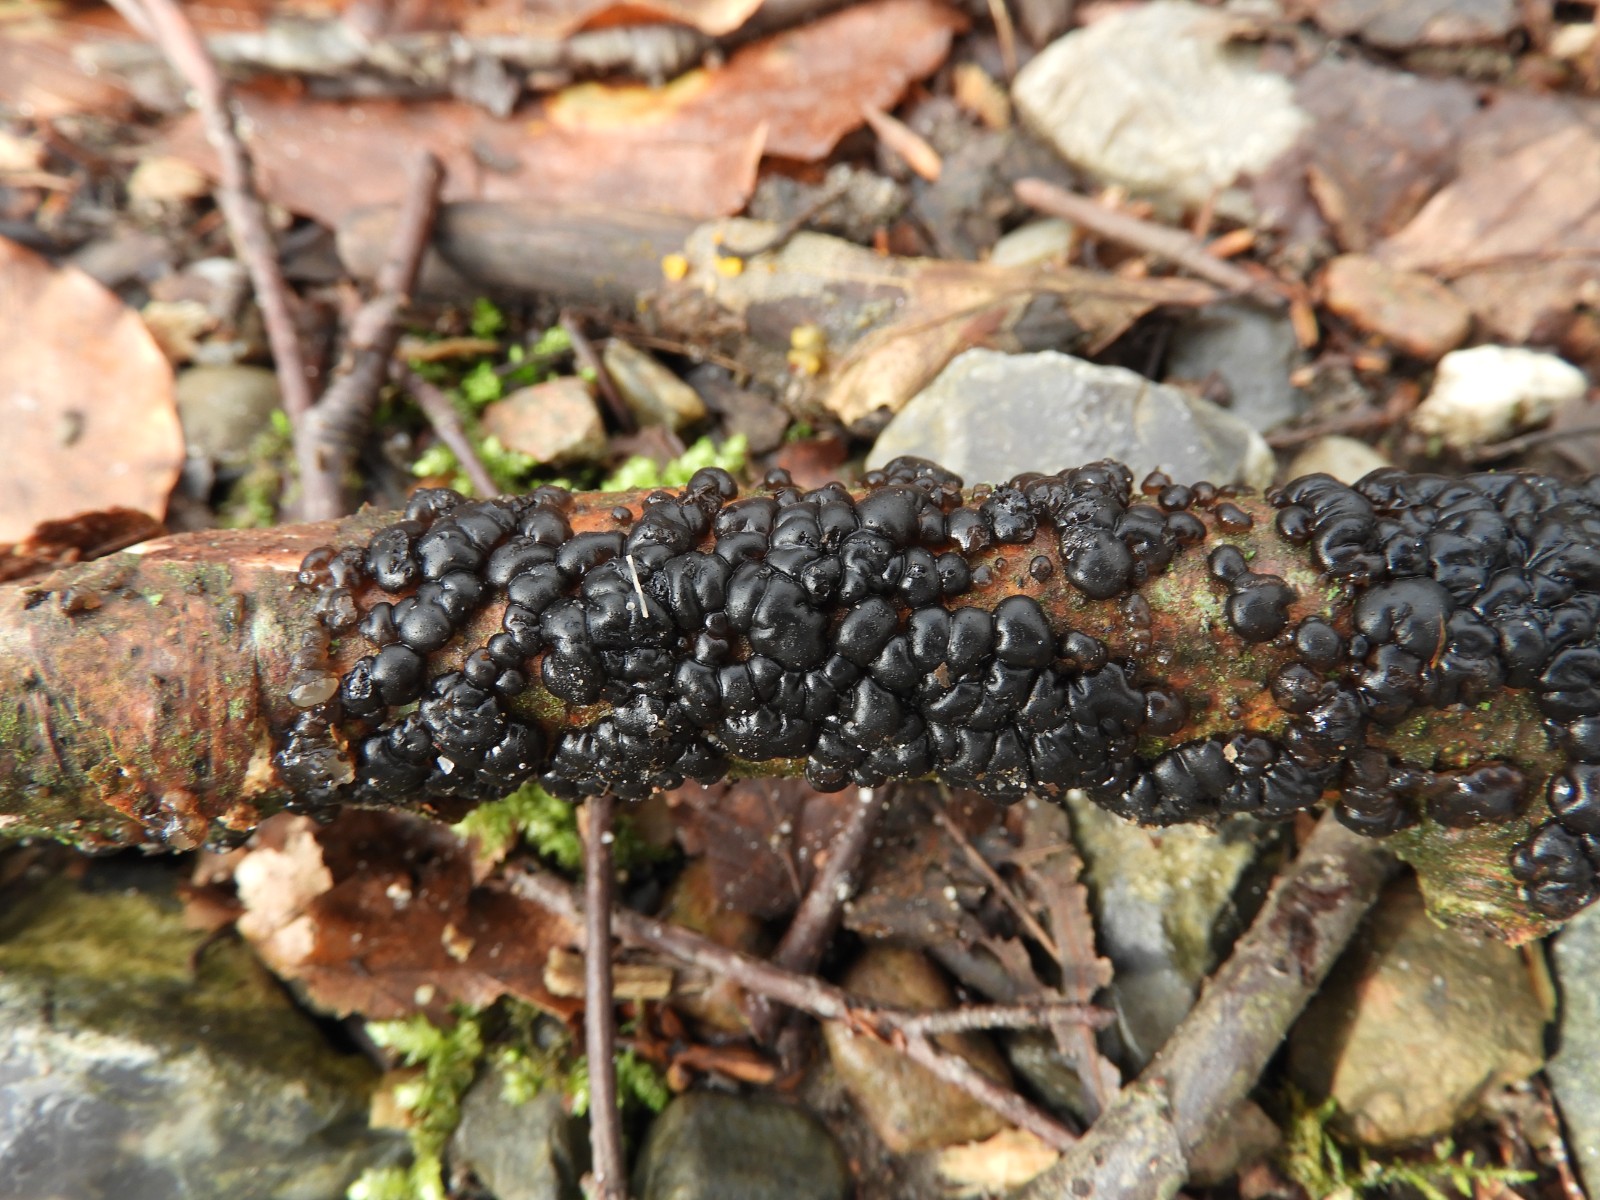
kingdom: Fungi
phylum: Basidiomycota
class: Agaricomycetes
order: Auriculariales
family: Auriculariaceae
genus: Exidia
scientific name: Exidia nigricans
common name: almindelig bævretop
